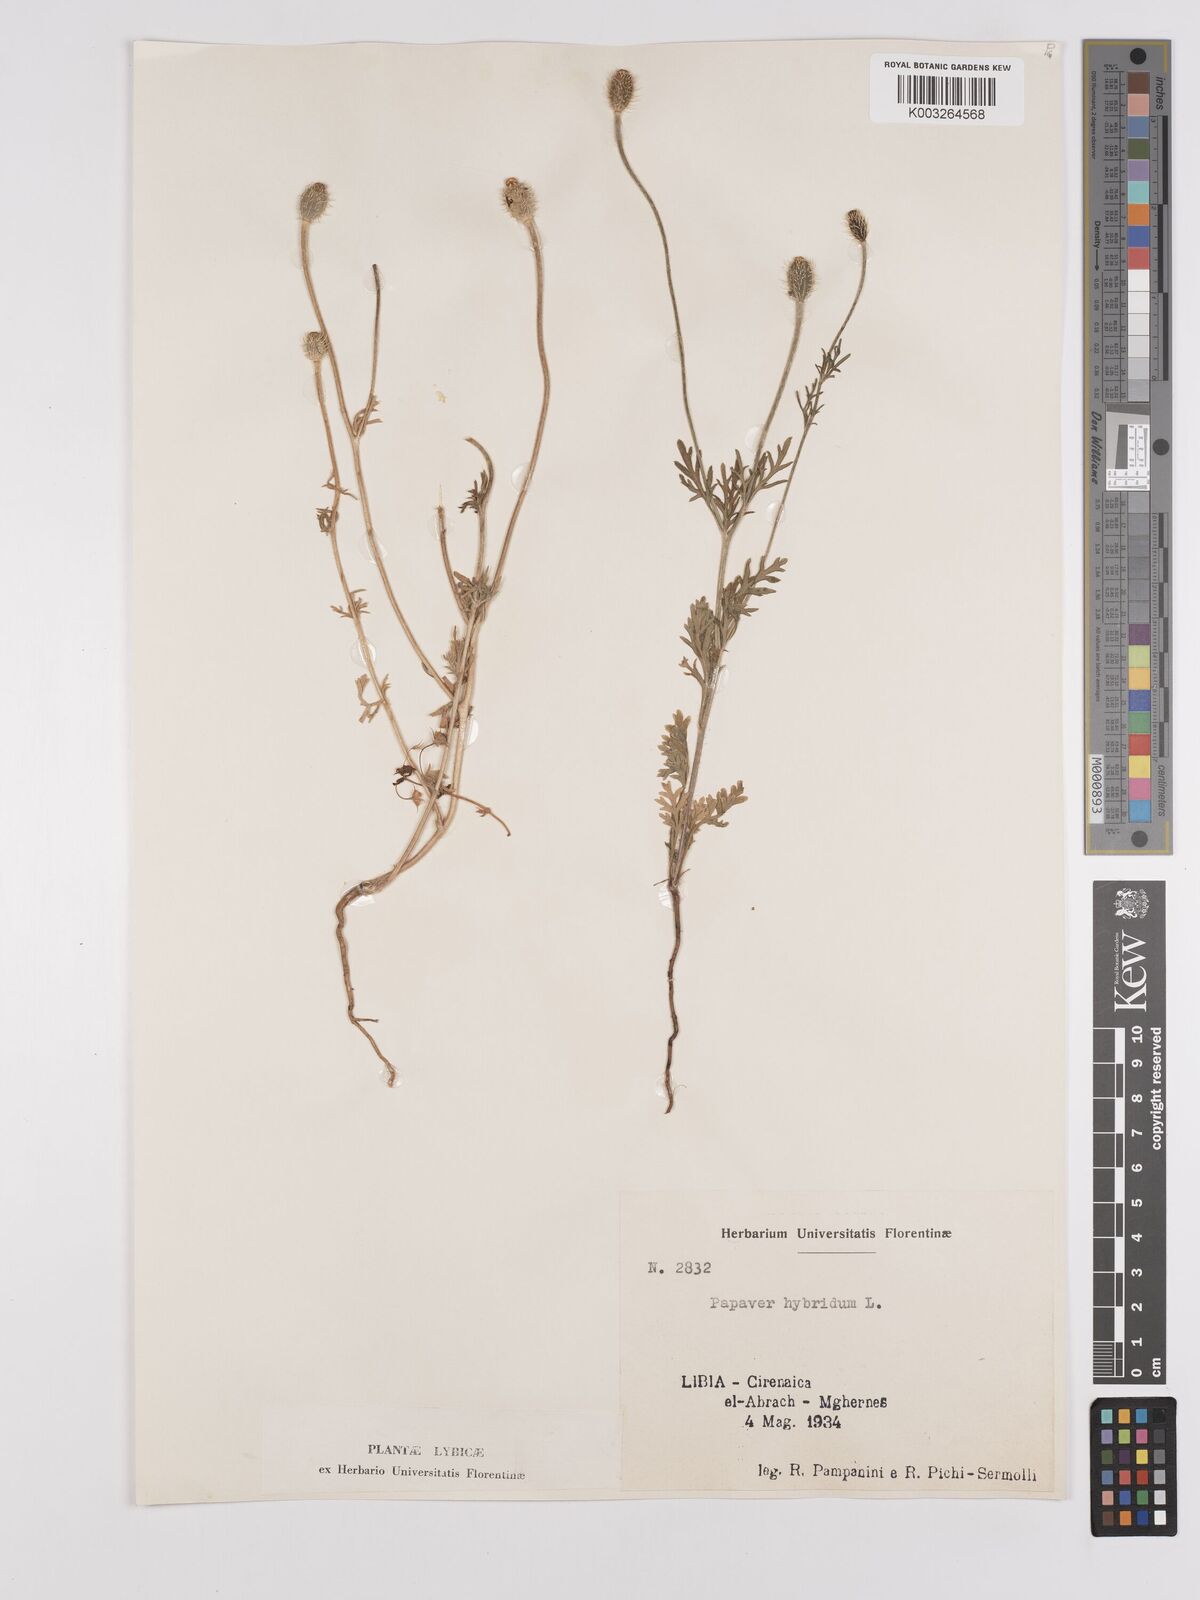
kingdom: Plantae
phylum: Tracheophyta
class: Magnoliopsida
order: Ranunculales
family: Papaveraceae
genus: Papaver
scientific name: Papaver
